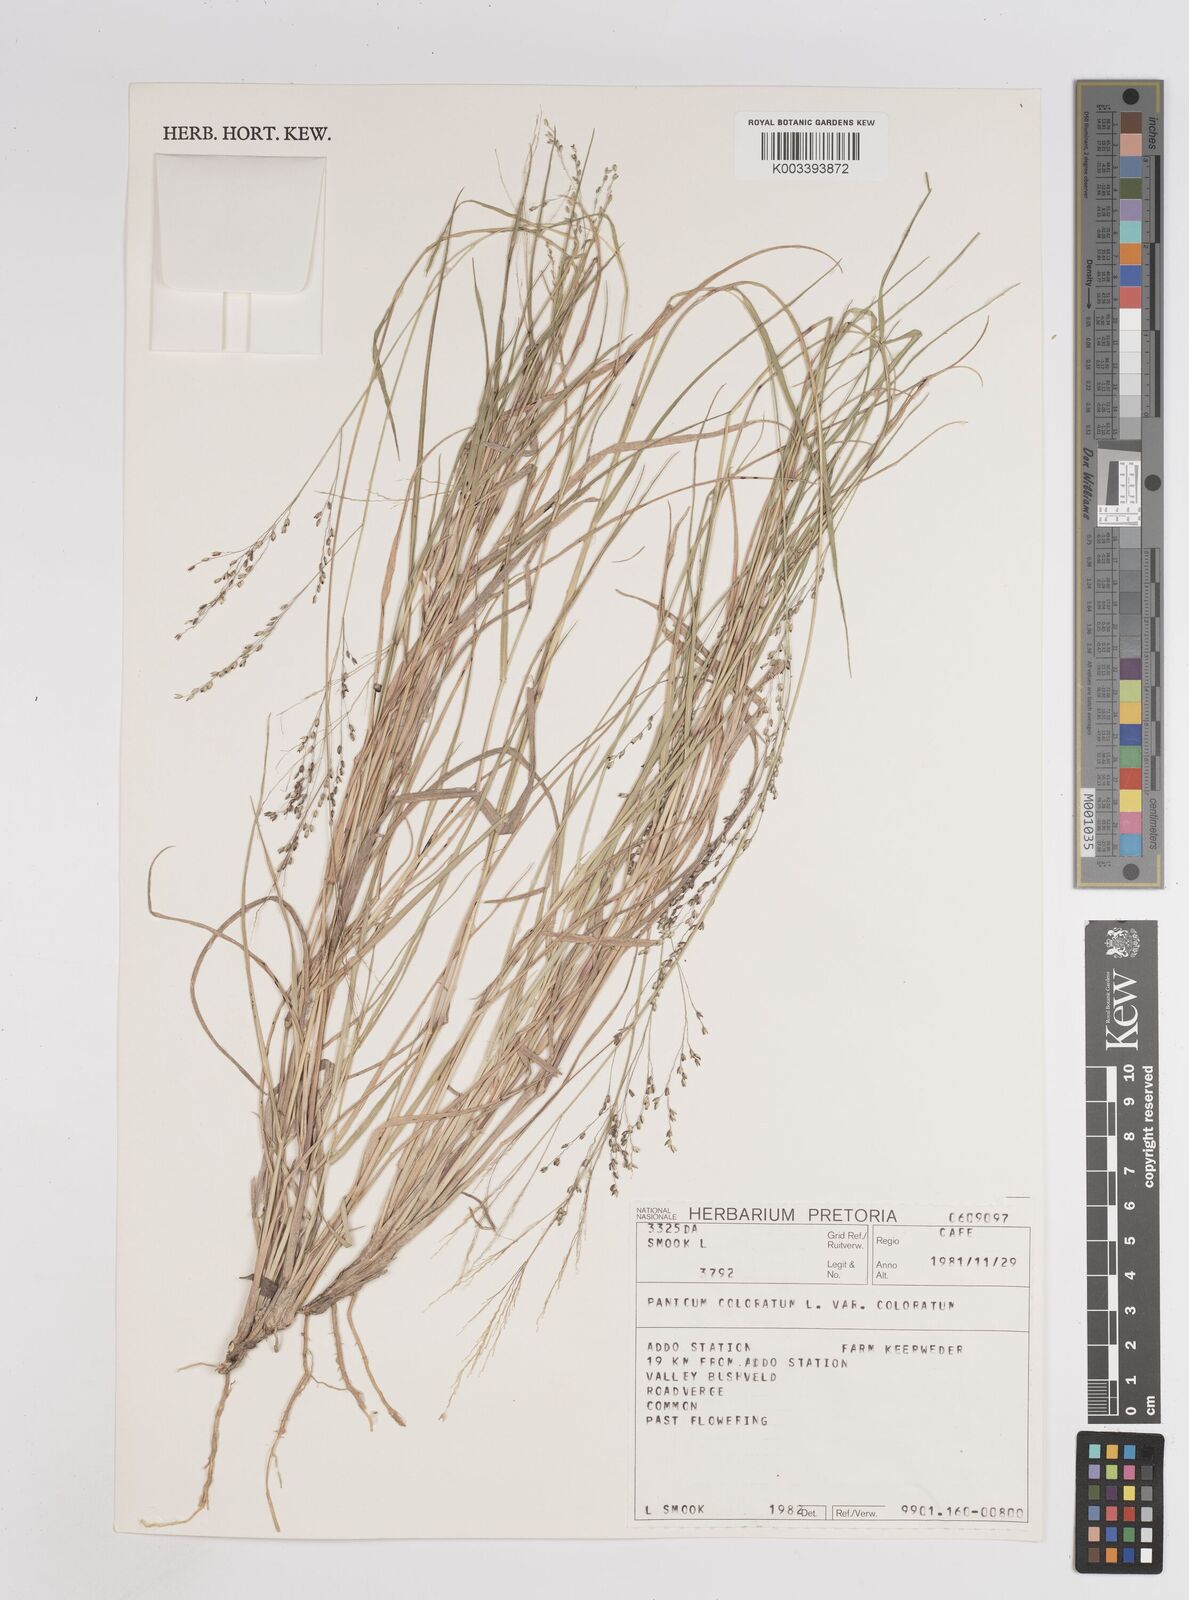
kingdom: Plantae
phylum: Tracheophyta
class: Liliopsida
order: Poales
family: Poaceae
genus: Panicum
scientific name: Panicum stapfianum
